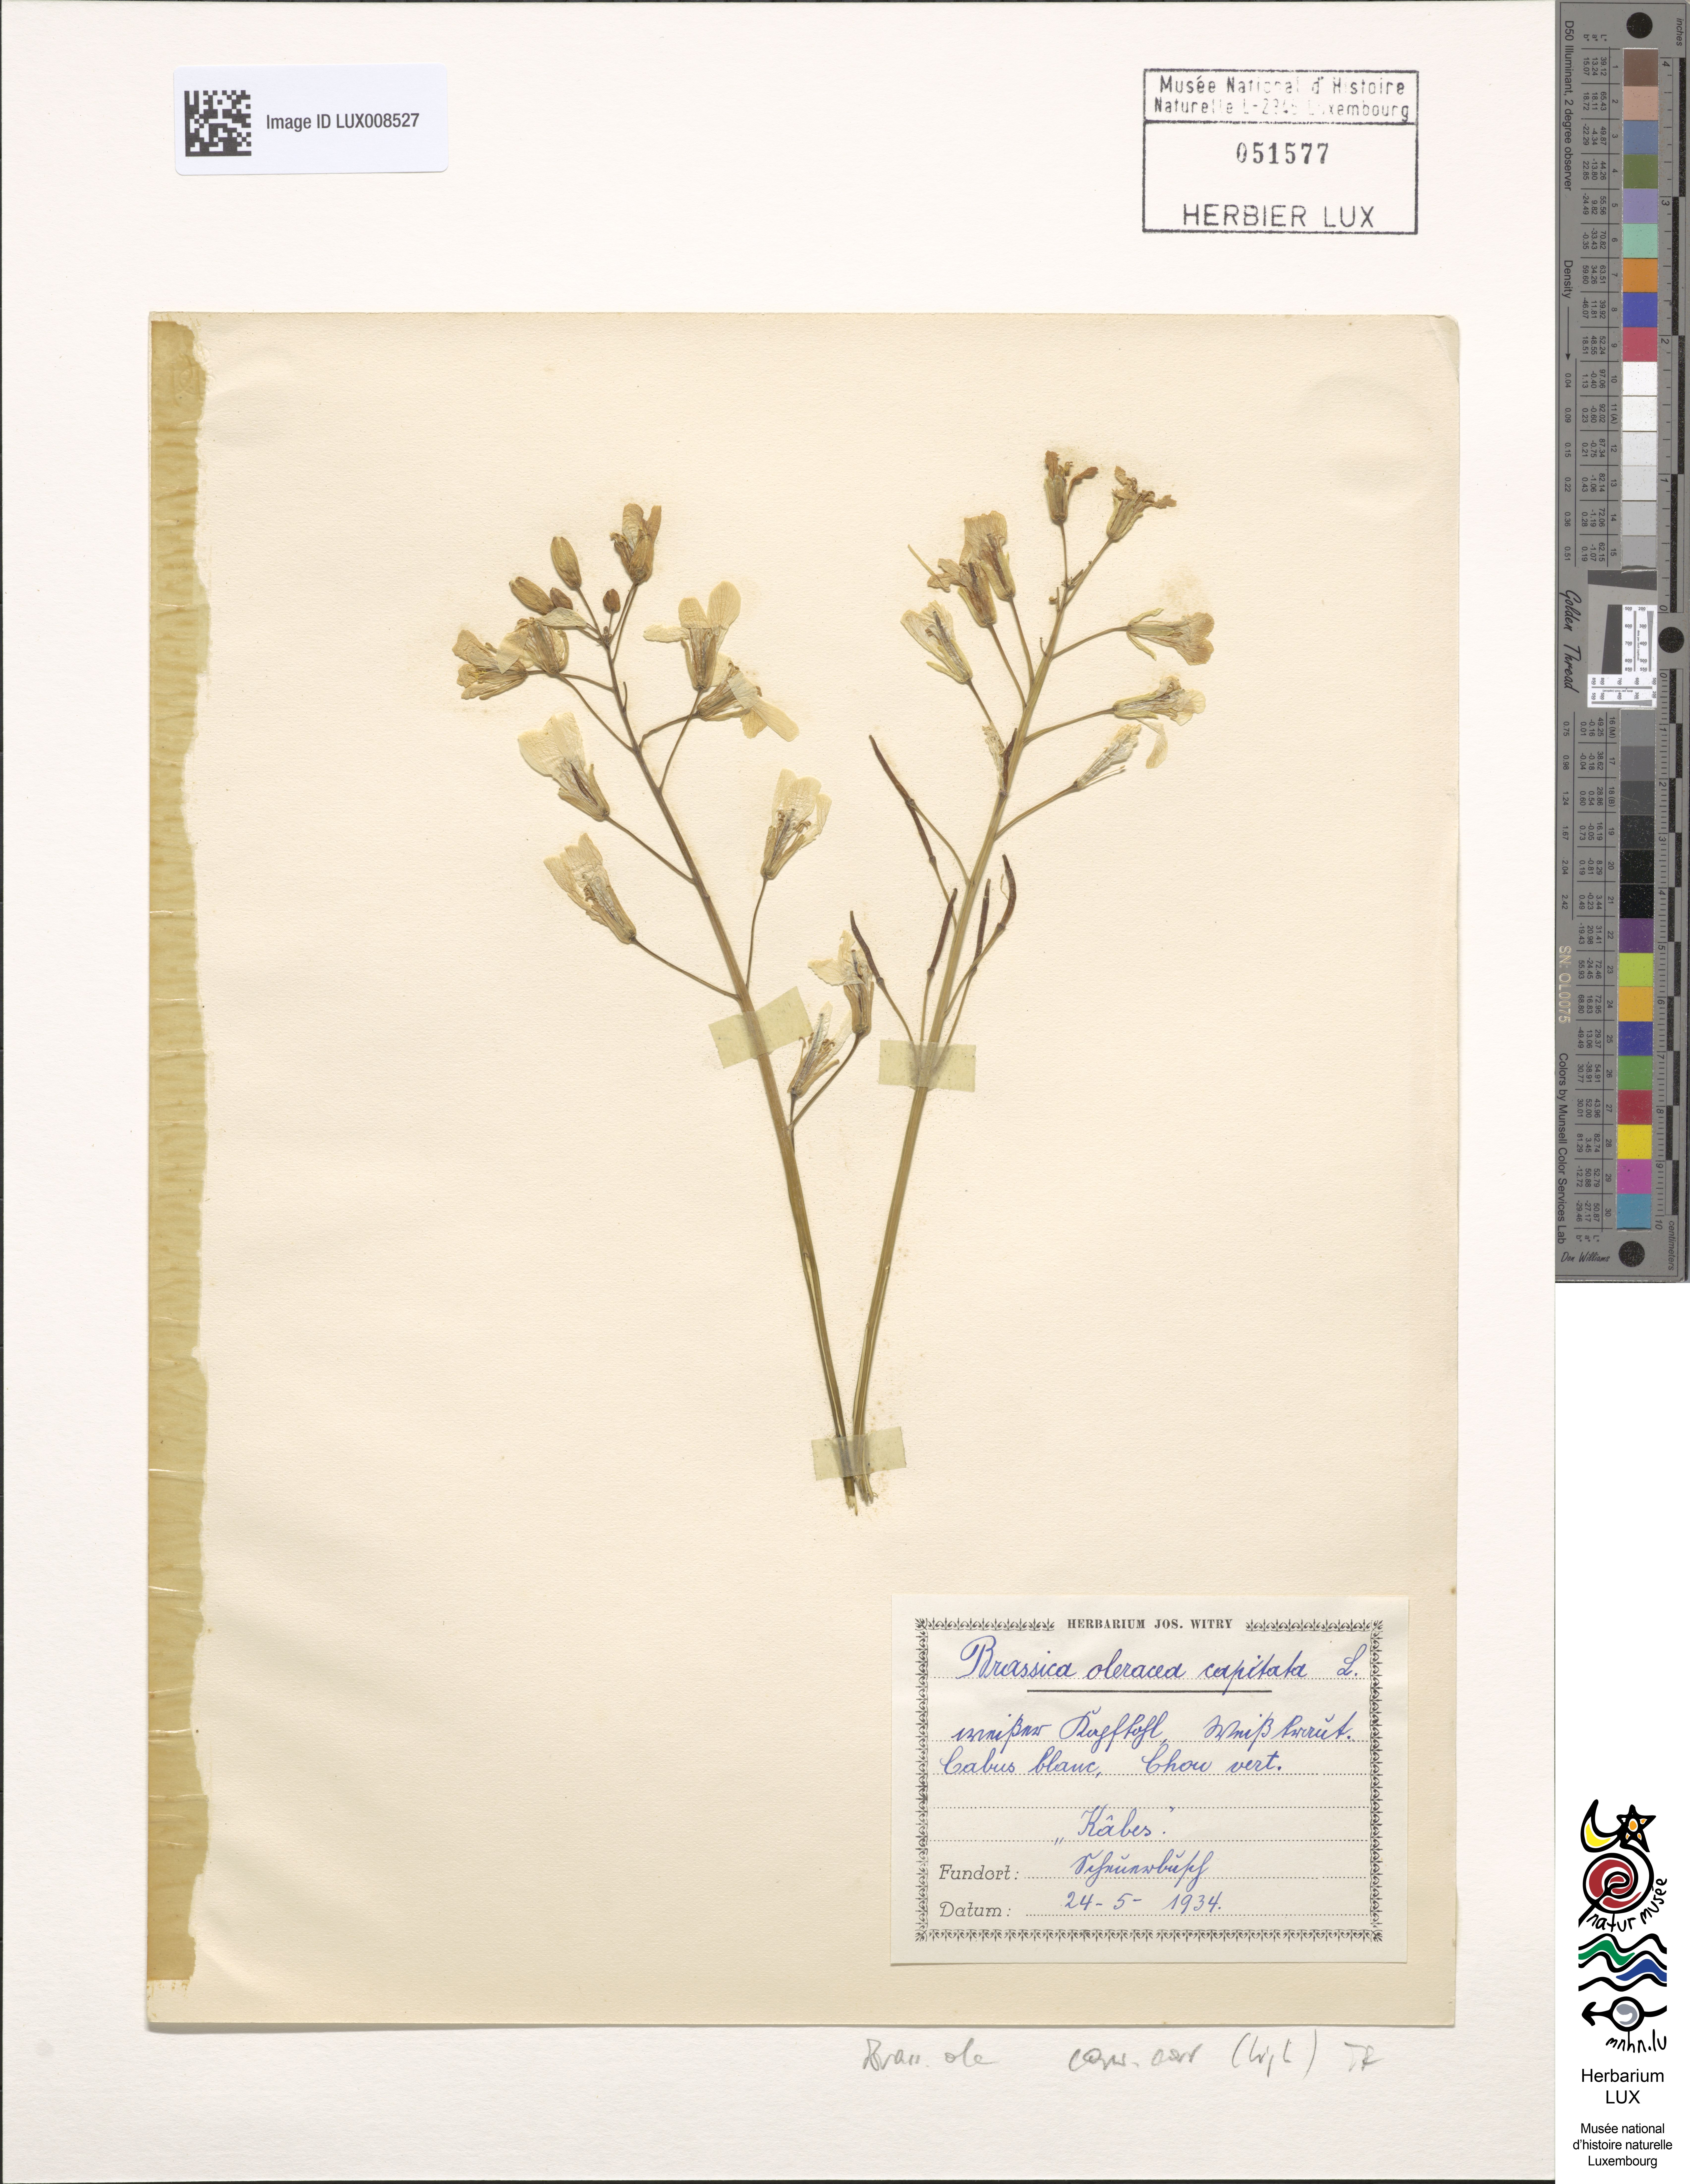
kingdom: Plantae
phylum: Tracheophyta
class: Magnoliopsida
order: Brassicales
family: Brassicaceae
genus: Brassica
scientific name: Brassica oleracea
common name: Cabbage
